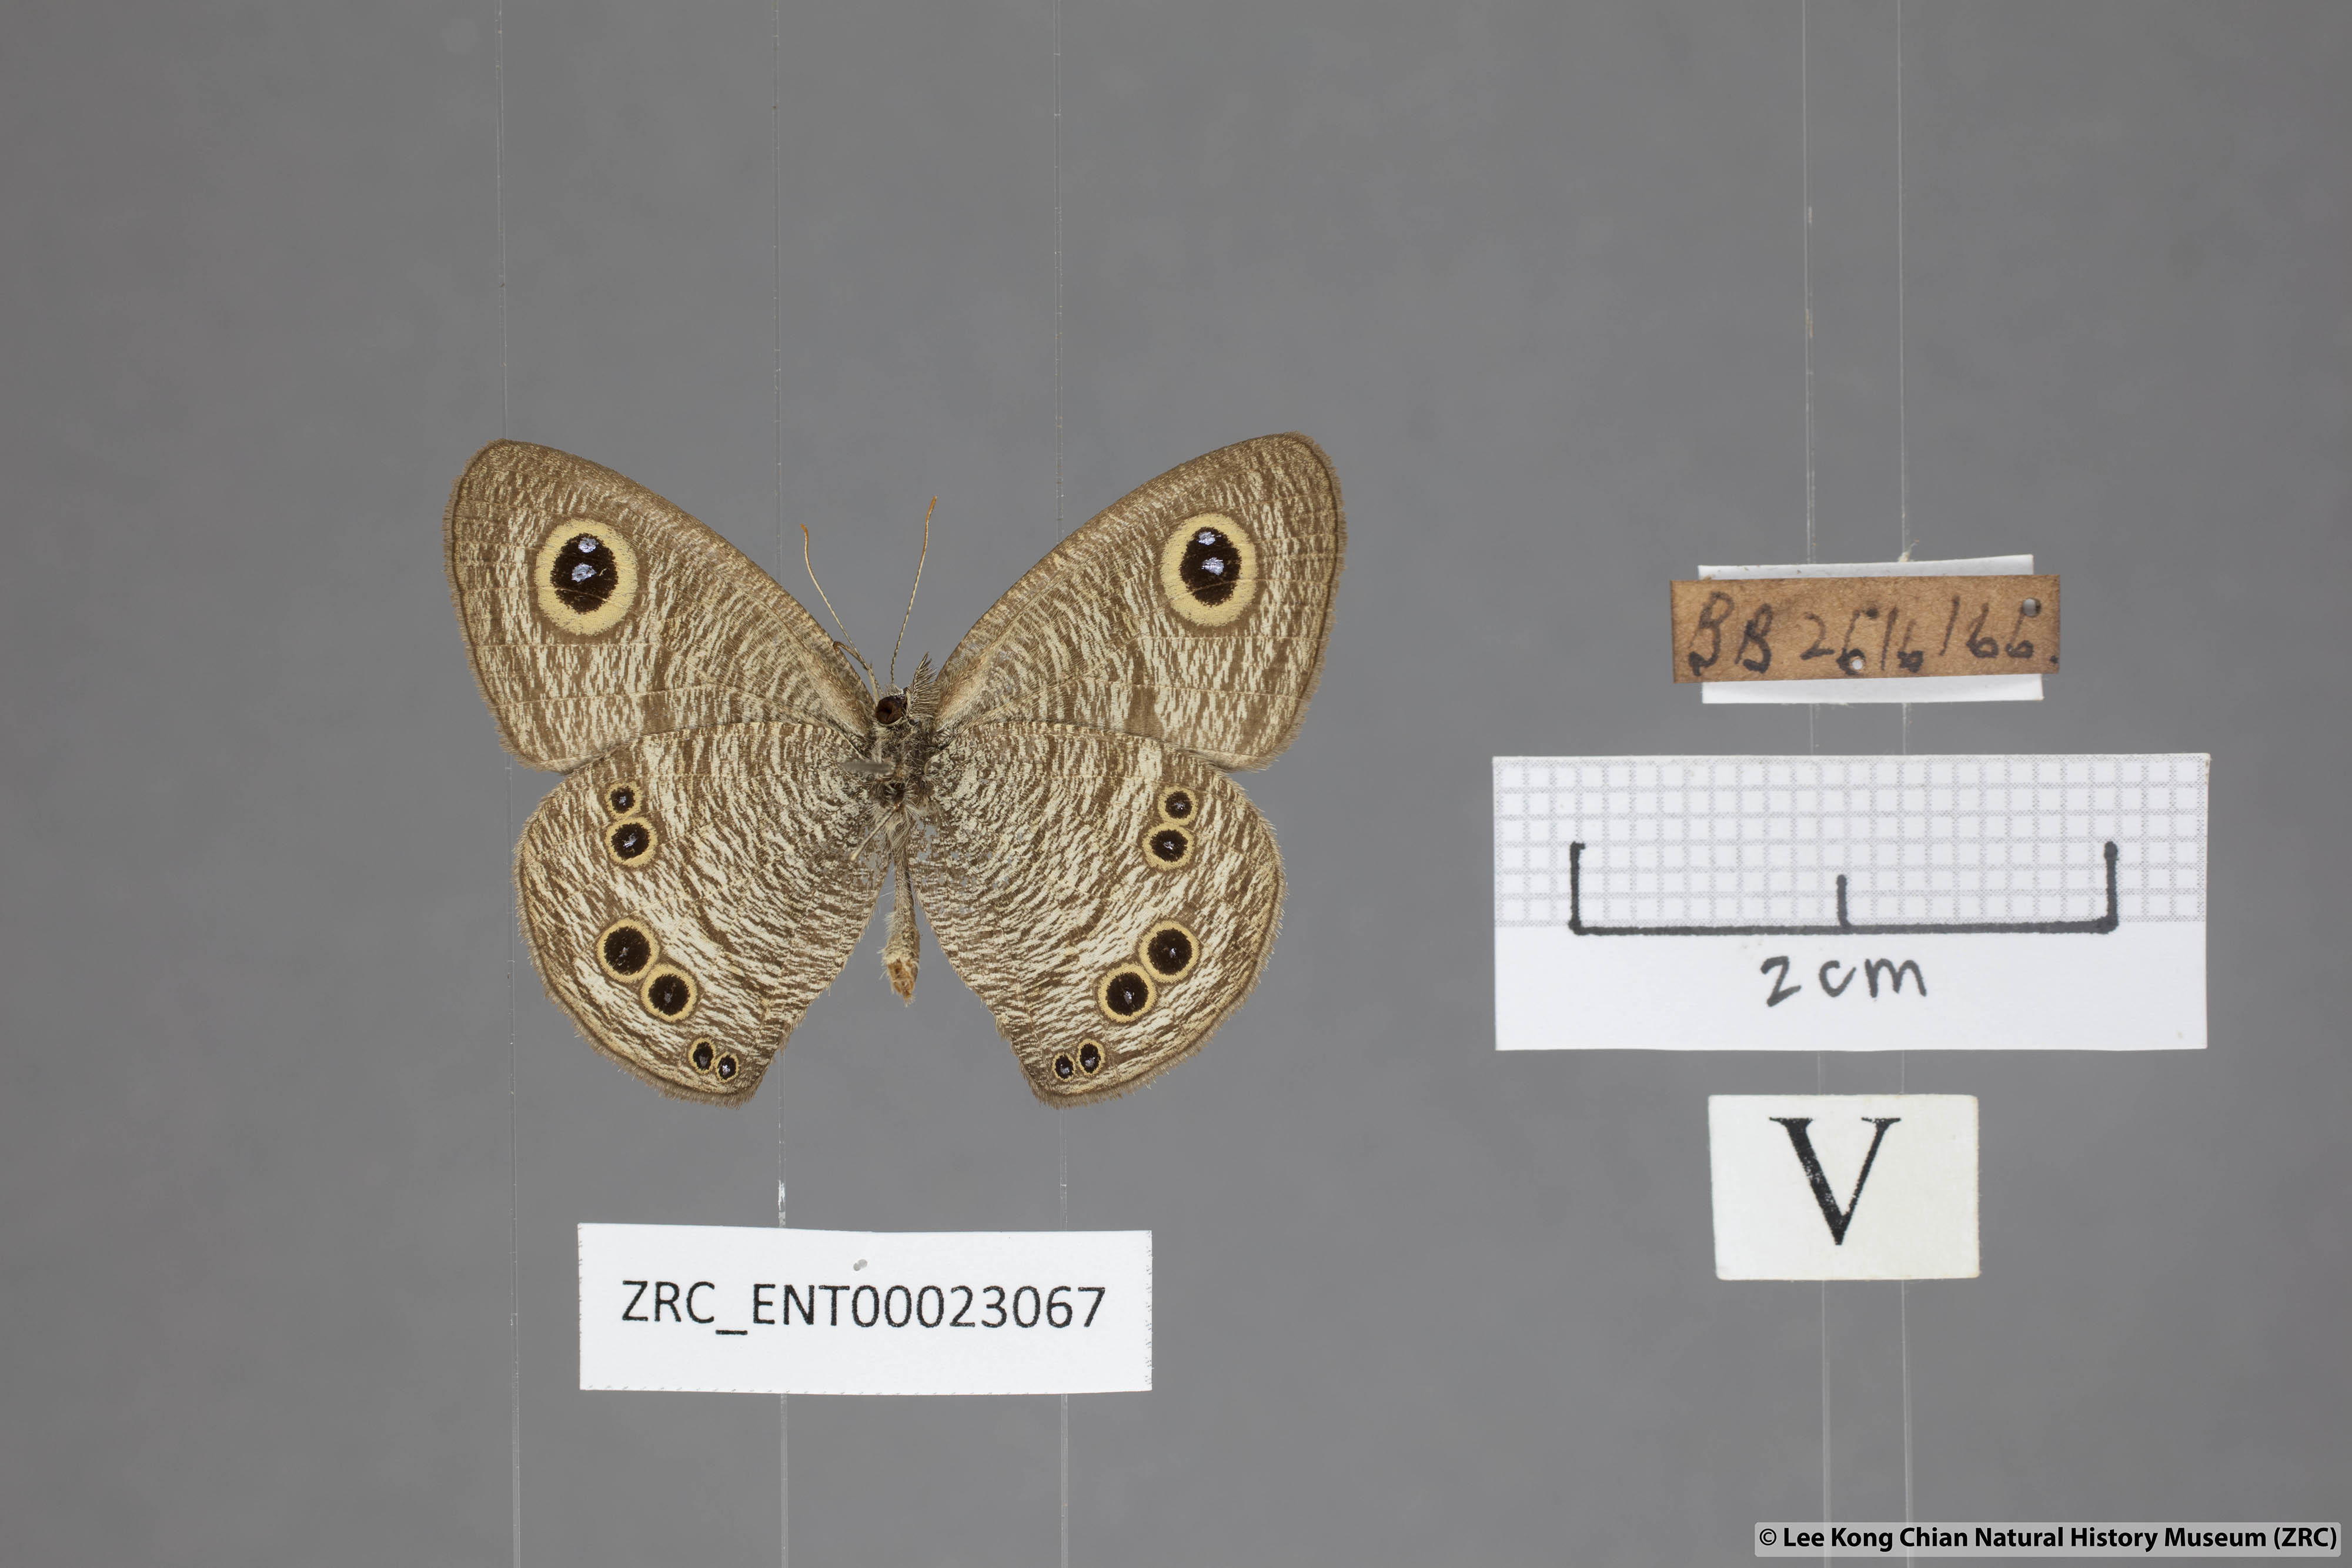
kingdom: Animalia
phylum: Arthropoda
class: Insecta
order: Lepidoptera
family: Nymphalidae
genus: Ypthima
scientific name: Ypthima baldus
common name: Common five-ring
